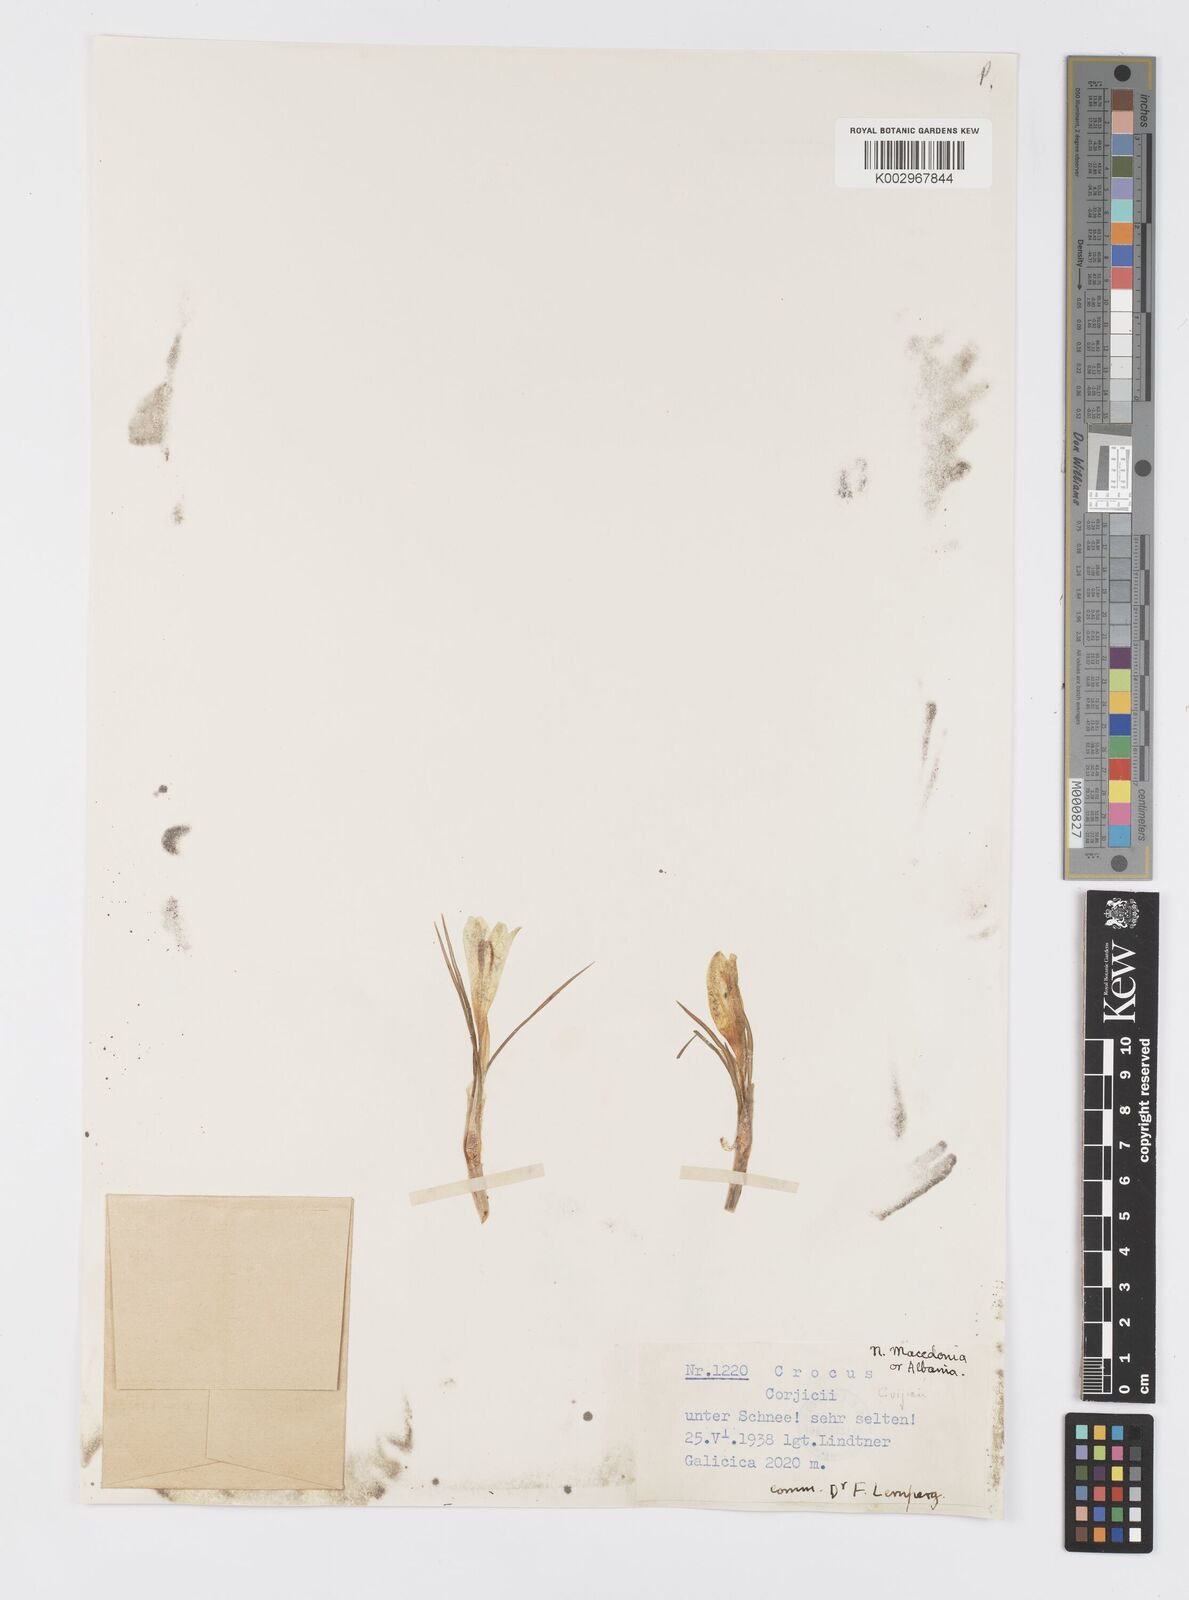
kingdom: Plantae
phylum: Tracheophyta
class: Liliopsida
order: Asparagales
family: Iridaceae
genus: Crocus
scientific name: Crocus cvijicii
